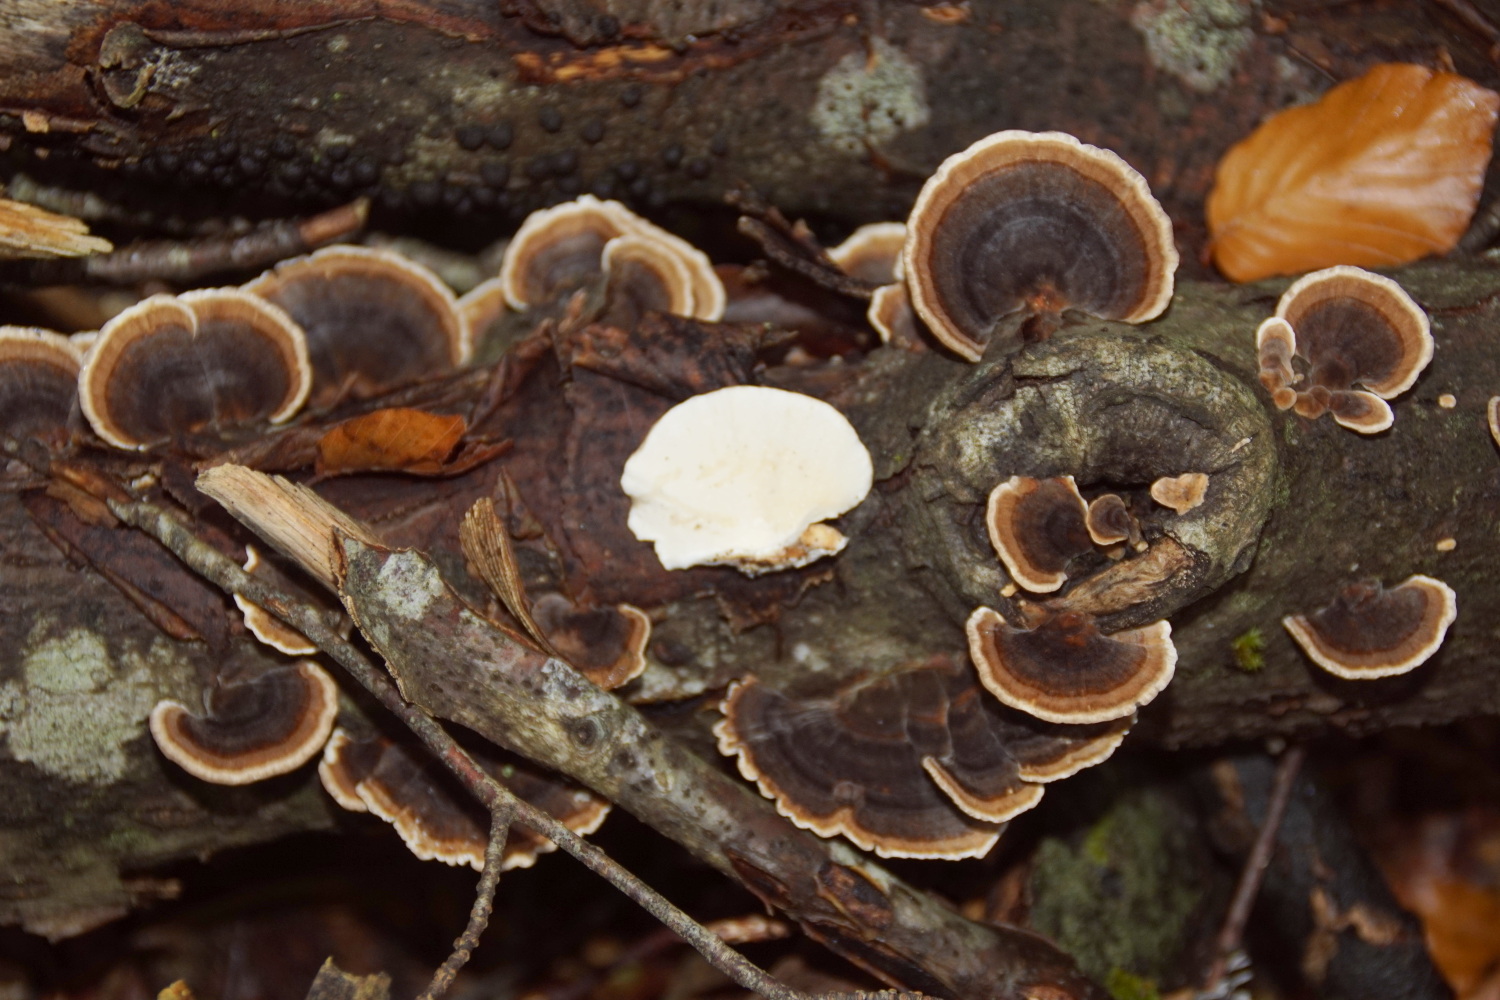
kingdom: Fungi
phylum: Basidiomycota
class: Agaricomycetes
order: Polyporales
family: Polyporaceae
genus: Trametes
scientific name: Trametes versicolor
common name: broget læderporesvamp
